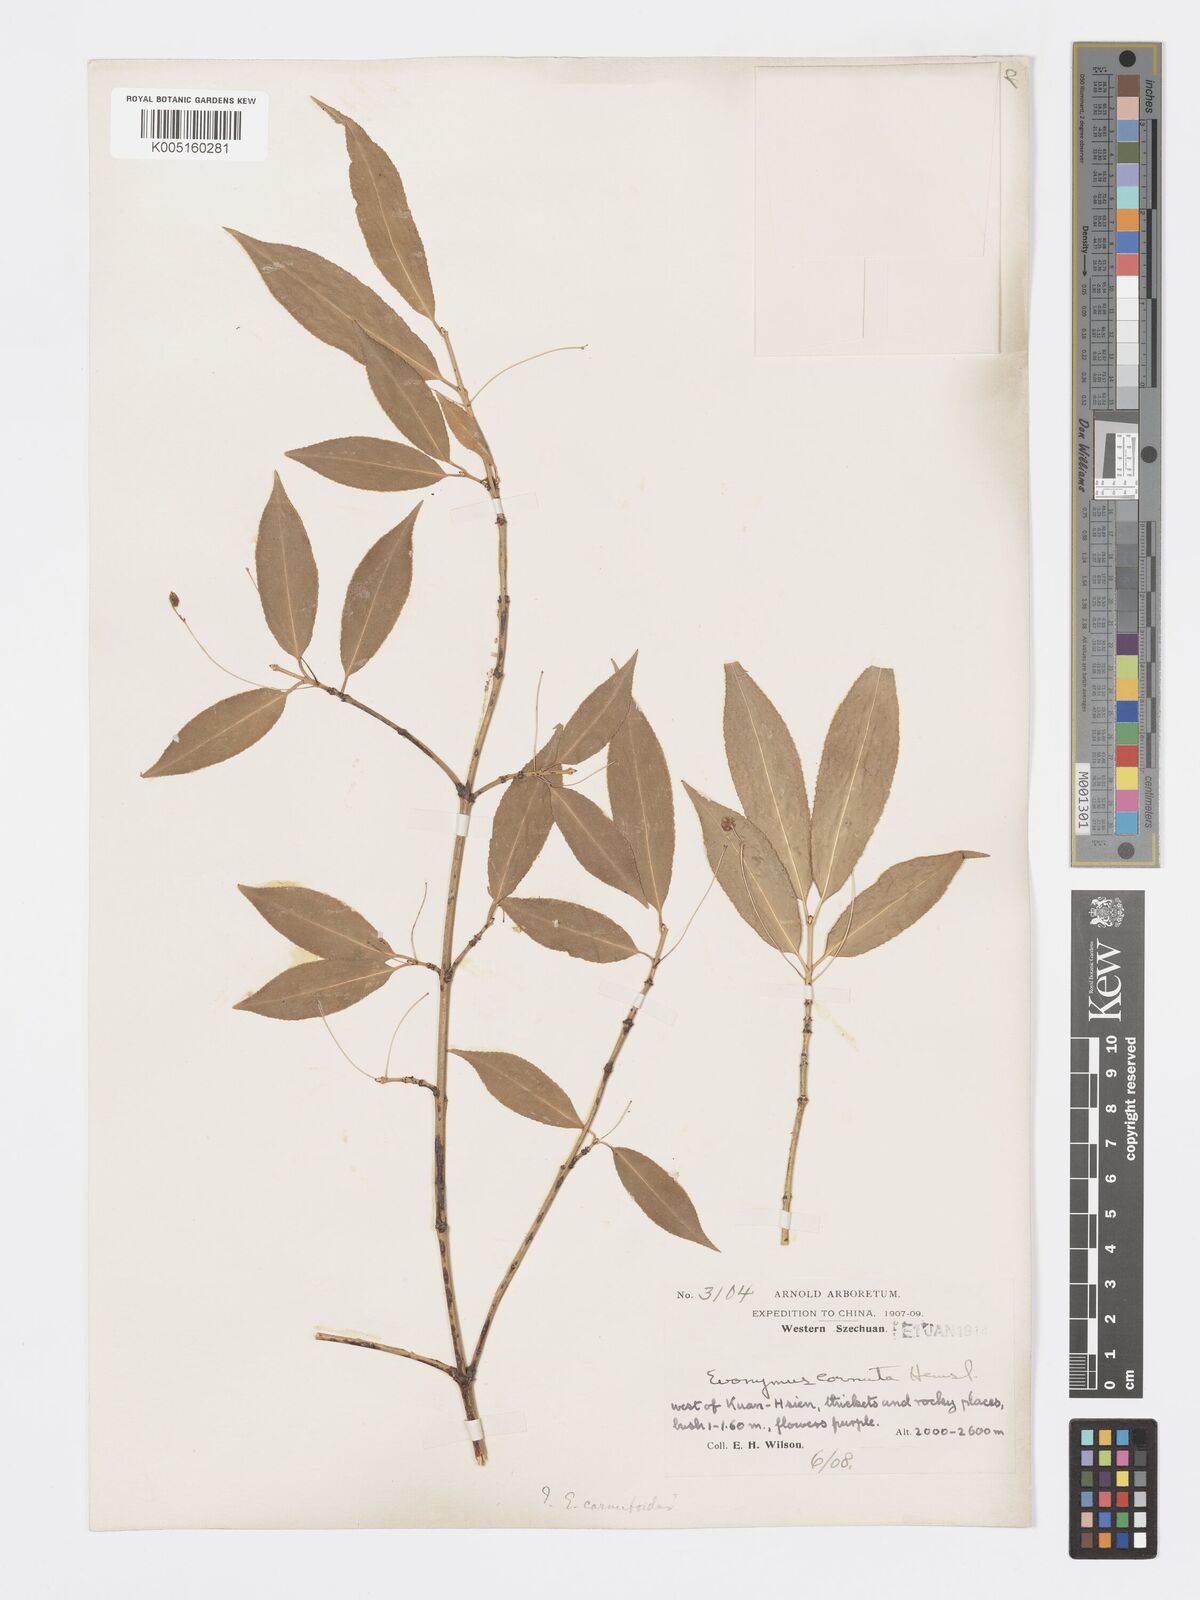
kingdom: Plantae
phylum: Tracheophyta
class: Magnoliopsida
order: Celastrales
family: Celastraceae
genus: Euonymus
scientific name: Euonymus cornutus
